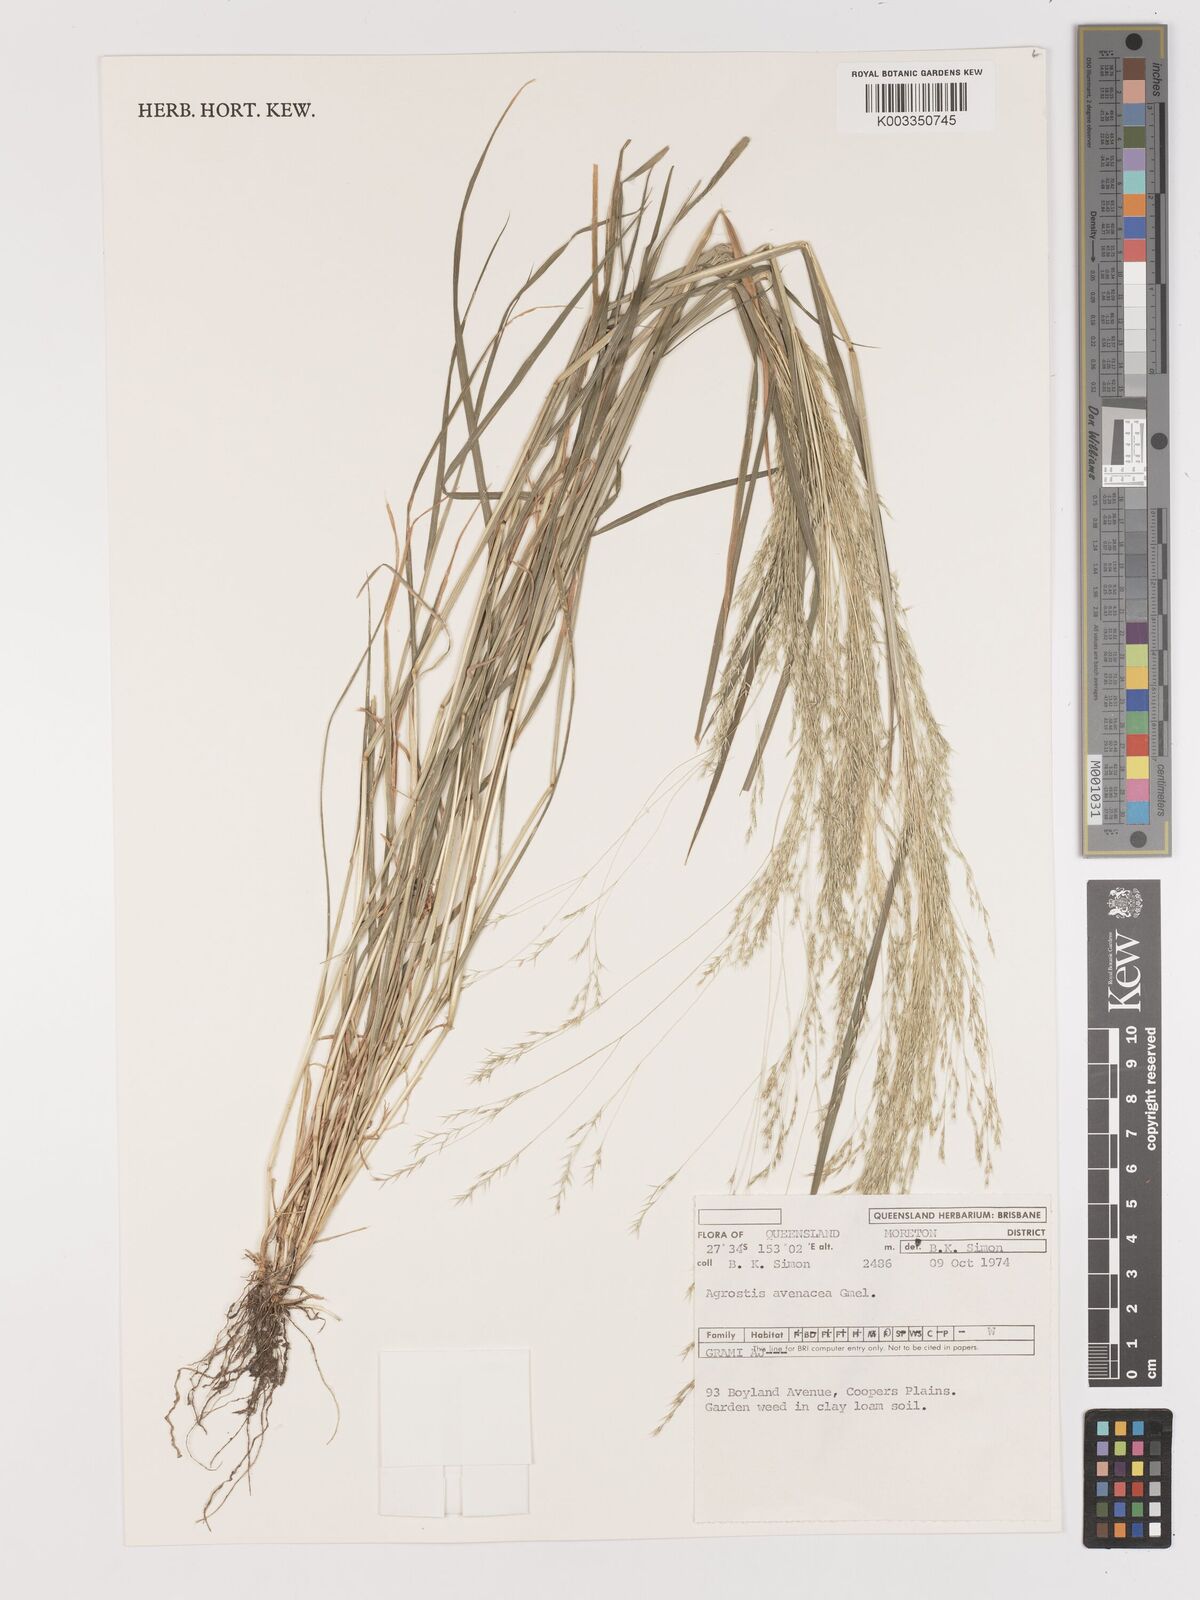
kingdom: Plantae
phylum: Tracheophyta
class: Liliopsida
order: Poales
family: Poaceae
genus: Lachnagrostis
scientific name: Lachnagrostis filiformis
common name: Bentgrass
